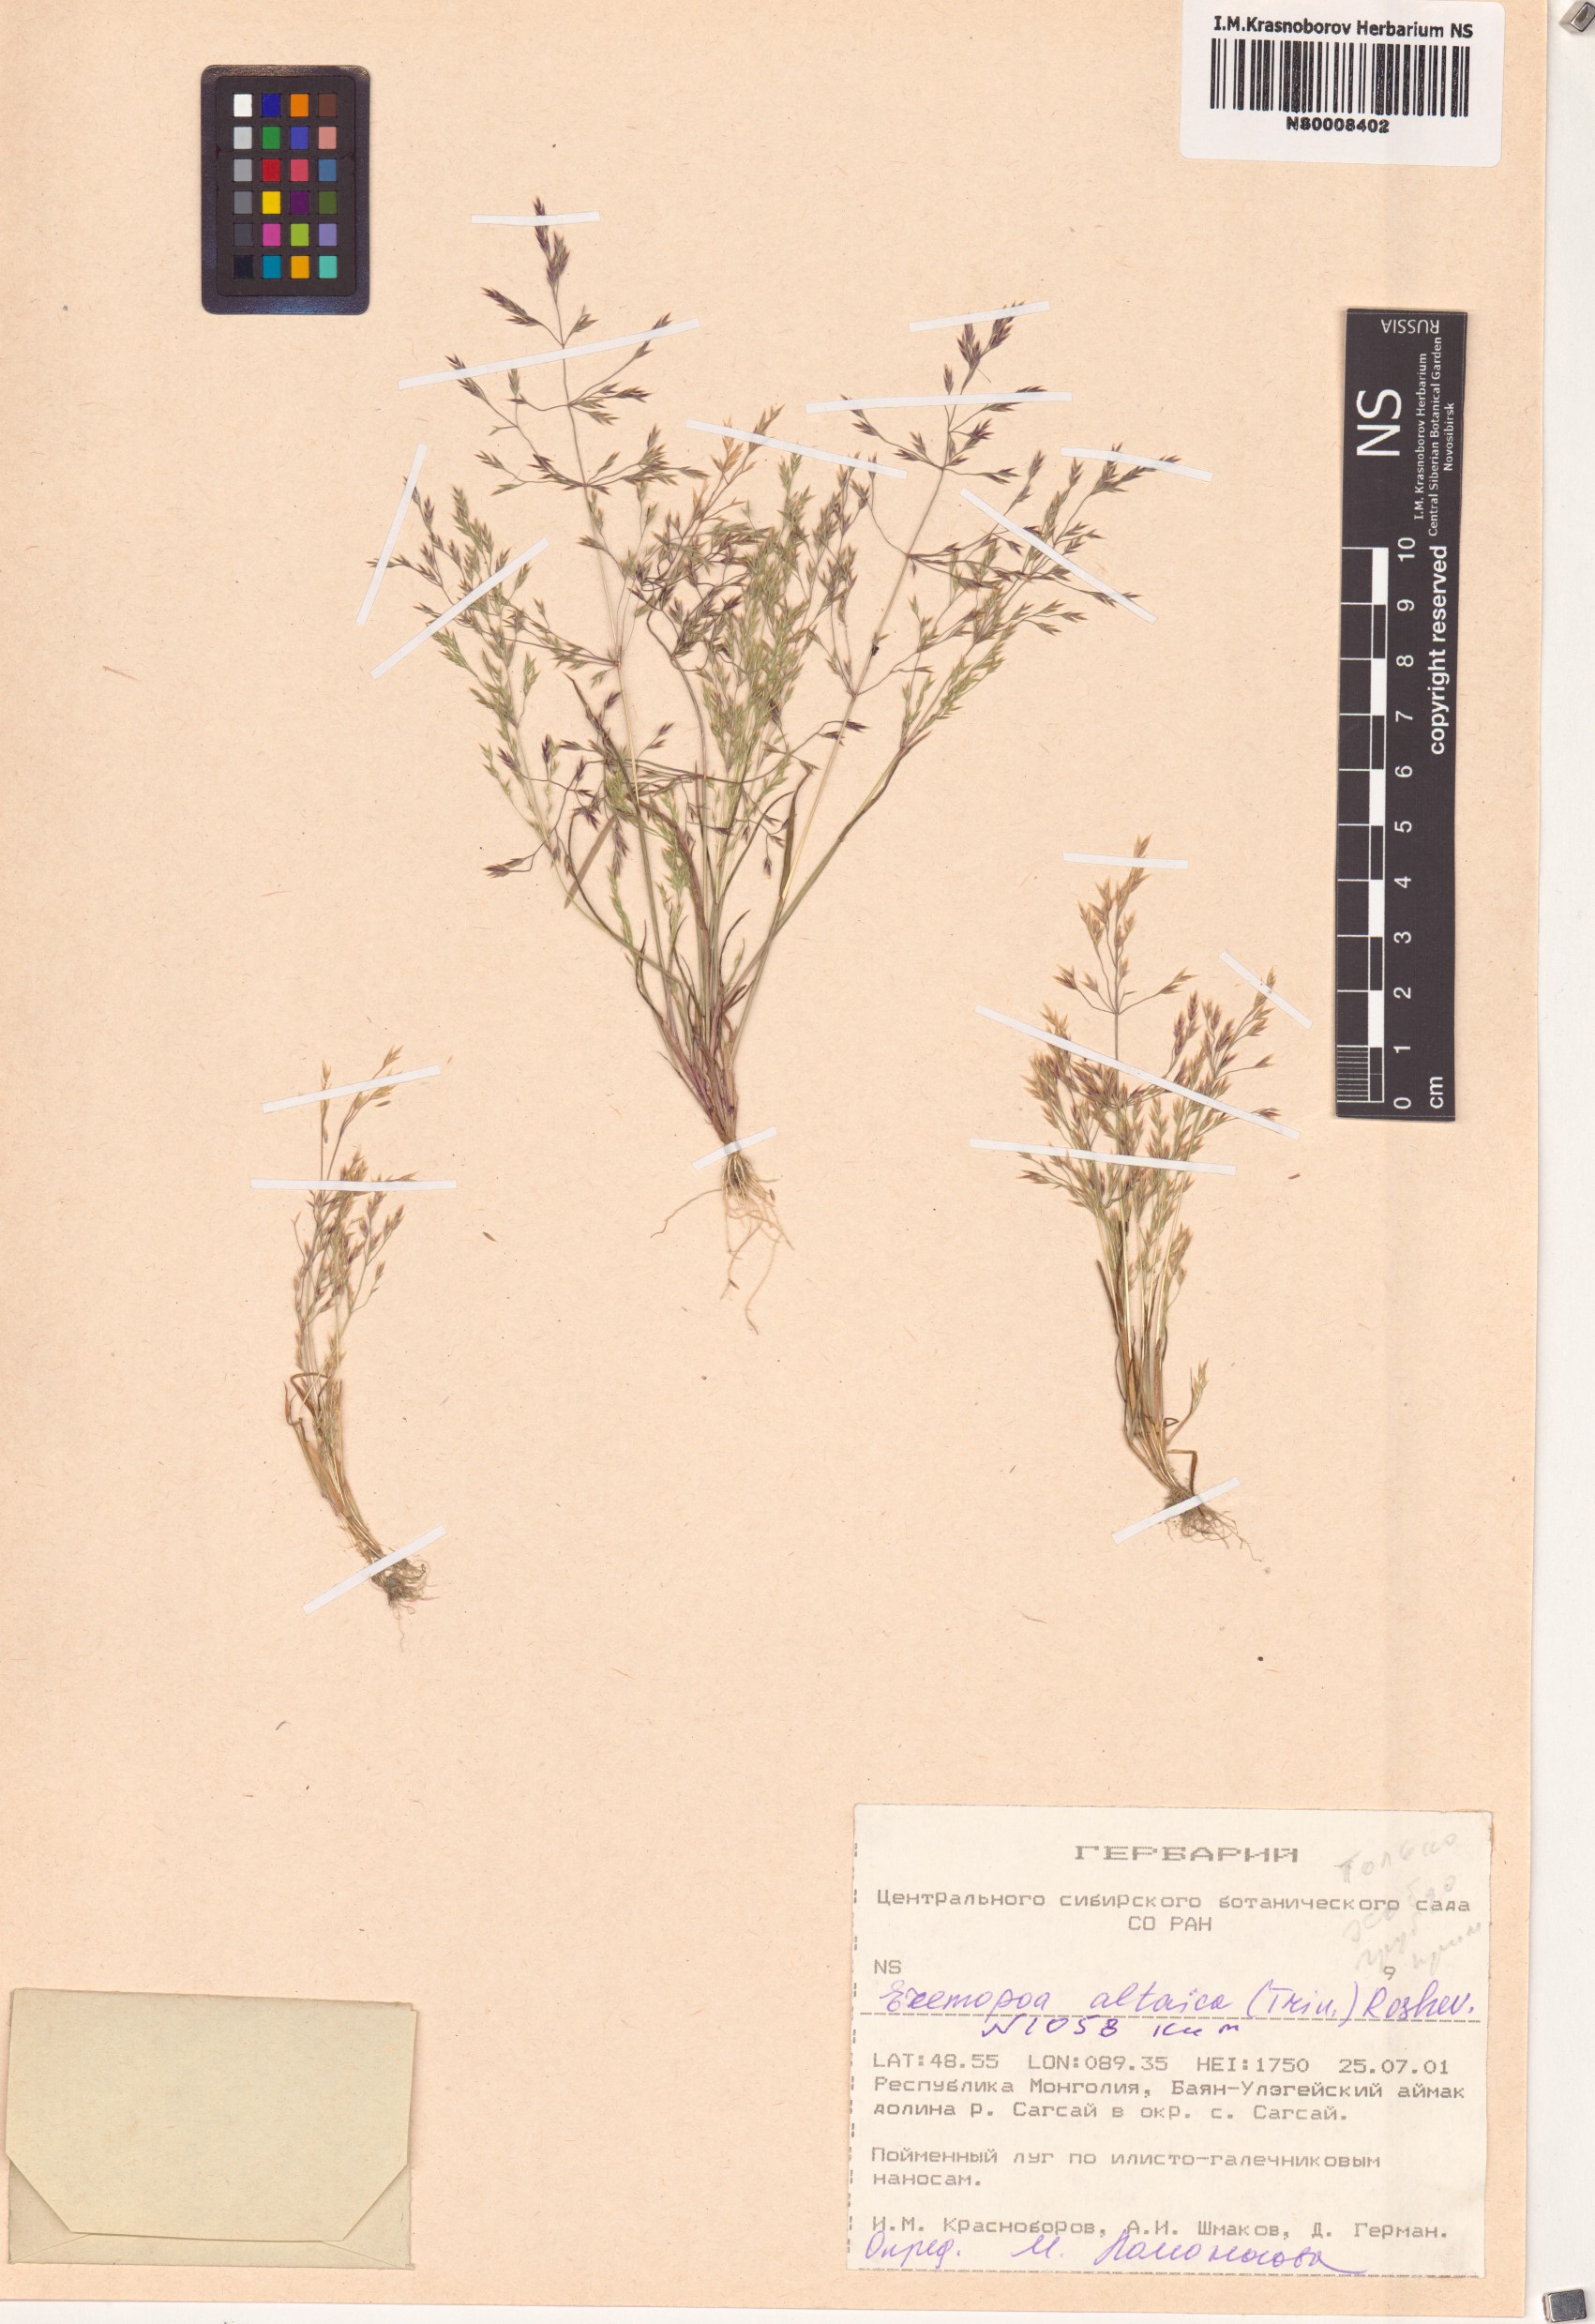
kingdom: Plantae
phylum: Tracheophyta
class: Liliopsida
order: Poales
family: Poaceae
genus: Poa
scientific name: Poa diaphora
